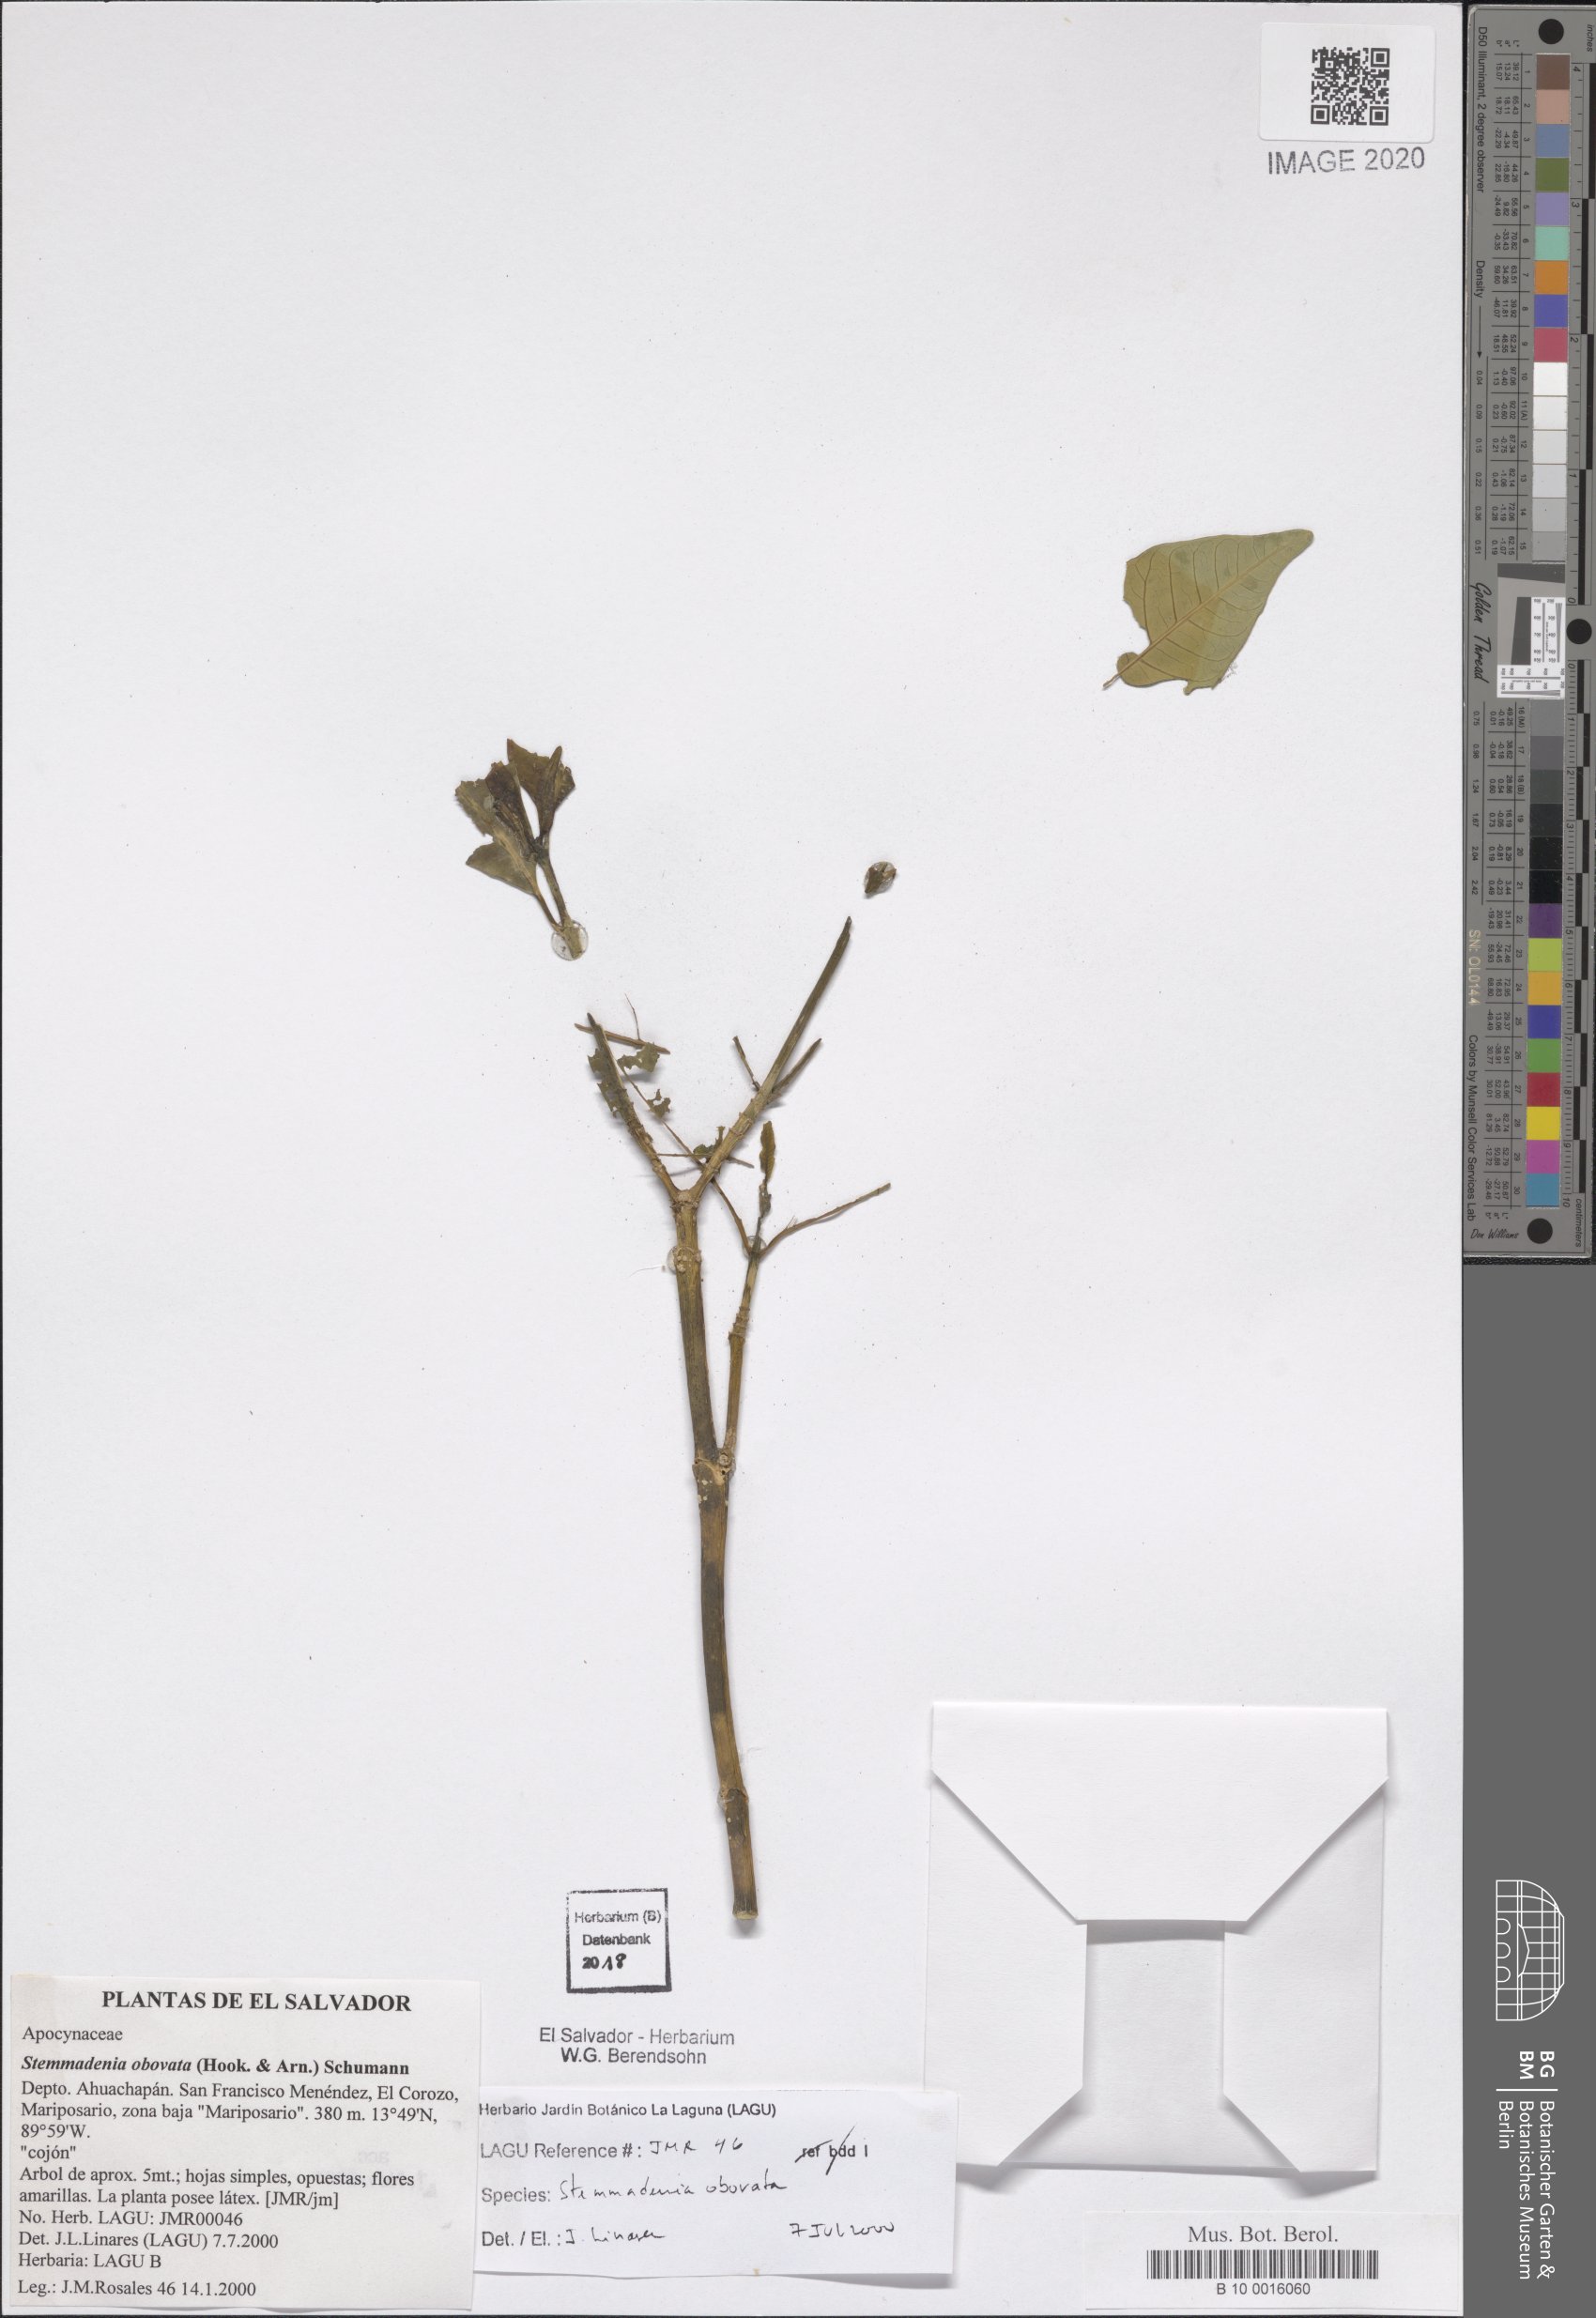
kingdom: Plantae
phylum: Tracheophyta
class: Magnoliopsida
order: Gentianales
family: Apocynaceae
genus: Tabernaemontana
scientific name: Tabernaemontana glabra
